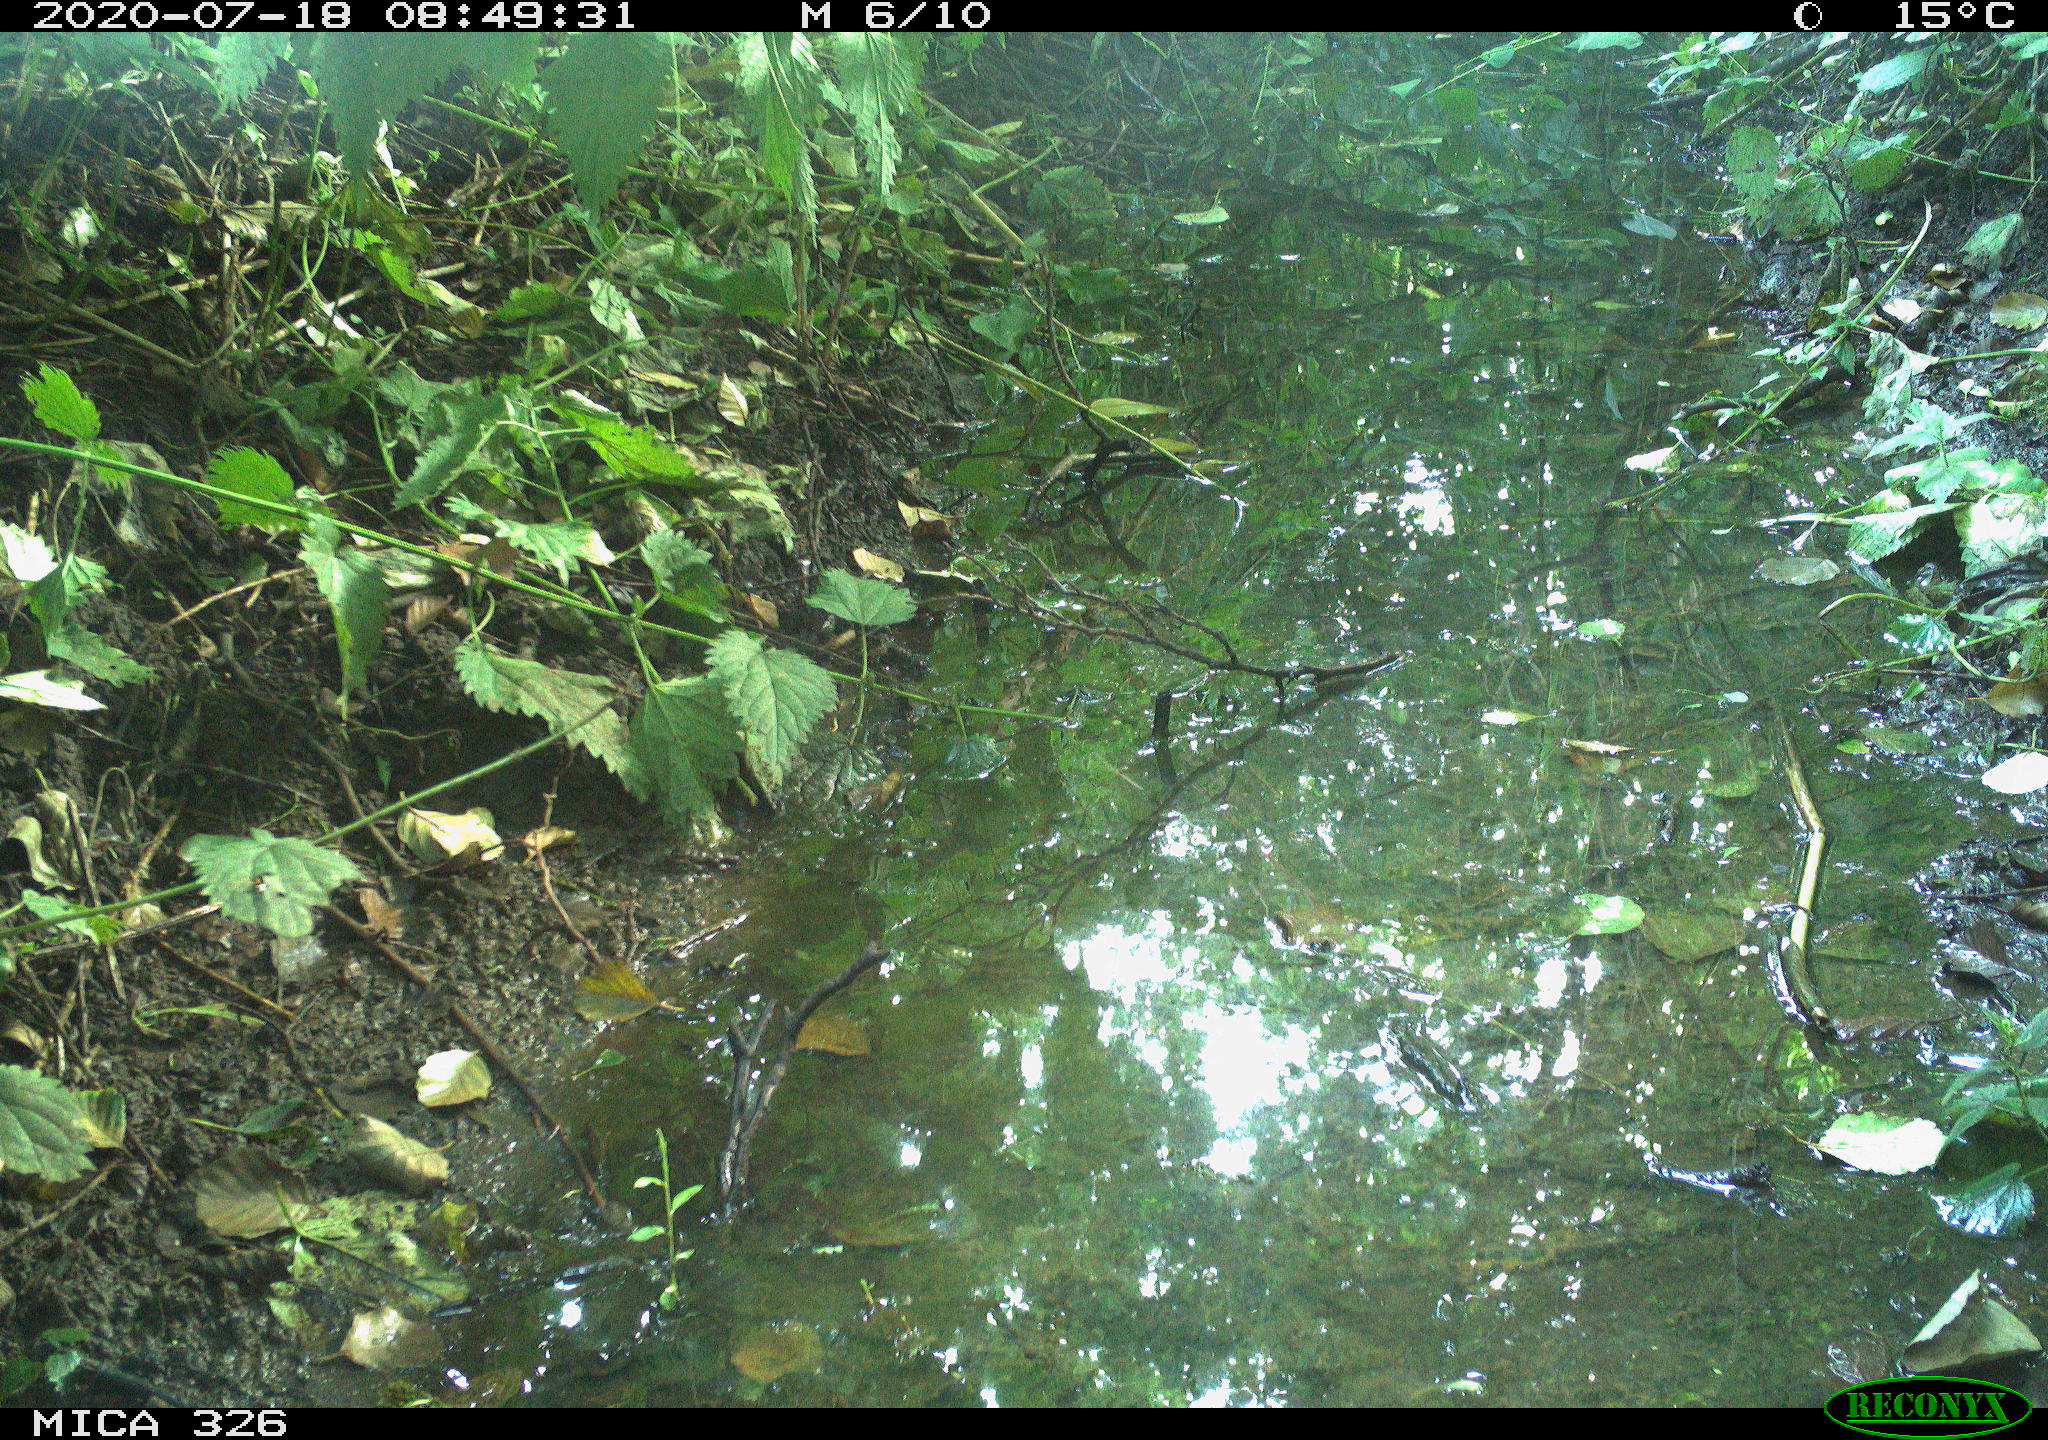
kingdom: Animalia
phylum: Chordata
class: Aves
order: Passeriformes
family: Muscicapidae
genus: Erithacus
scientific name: Erithacus rubecula
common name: European robin
